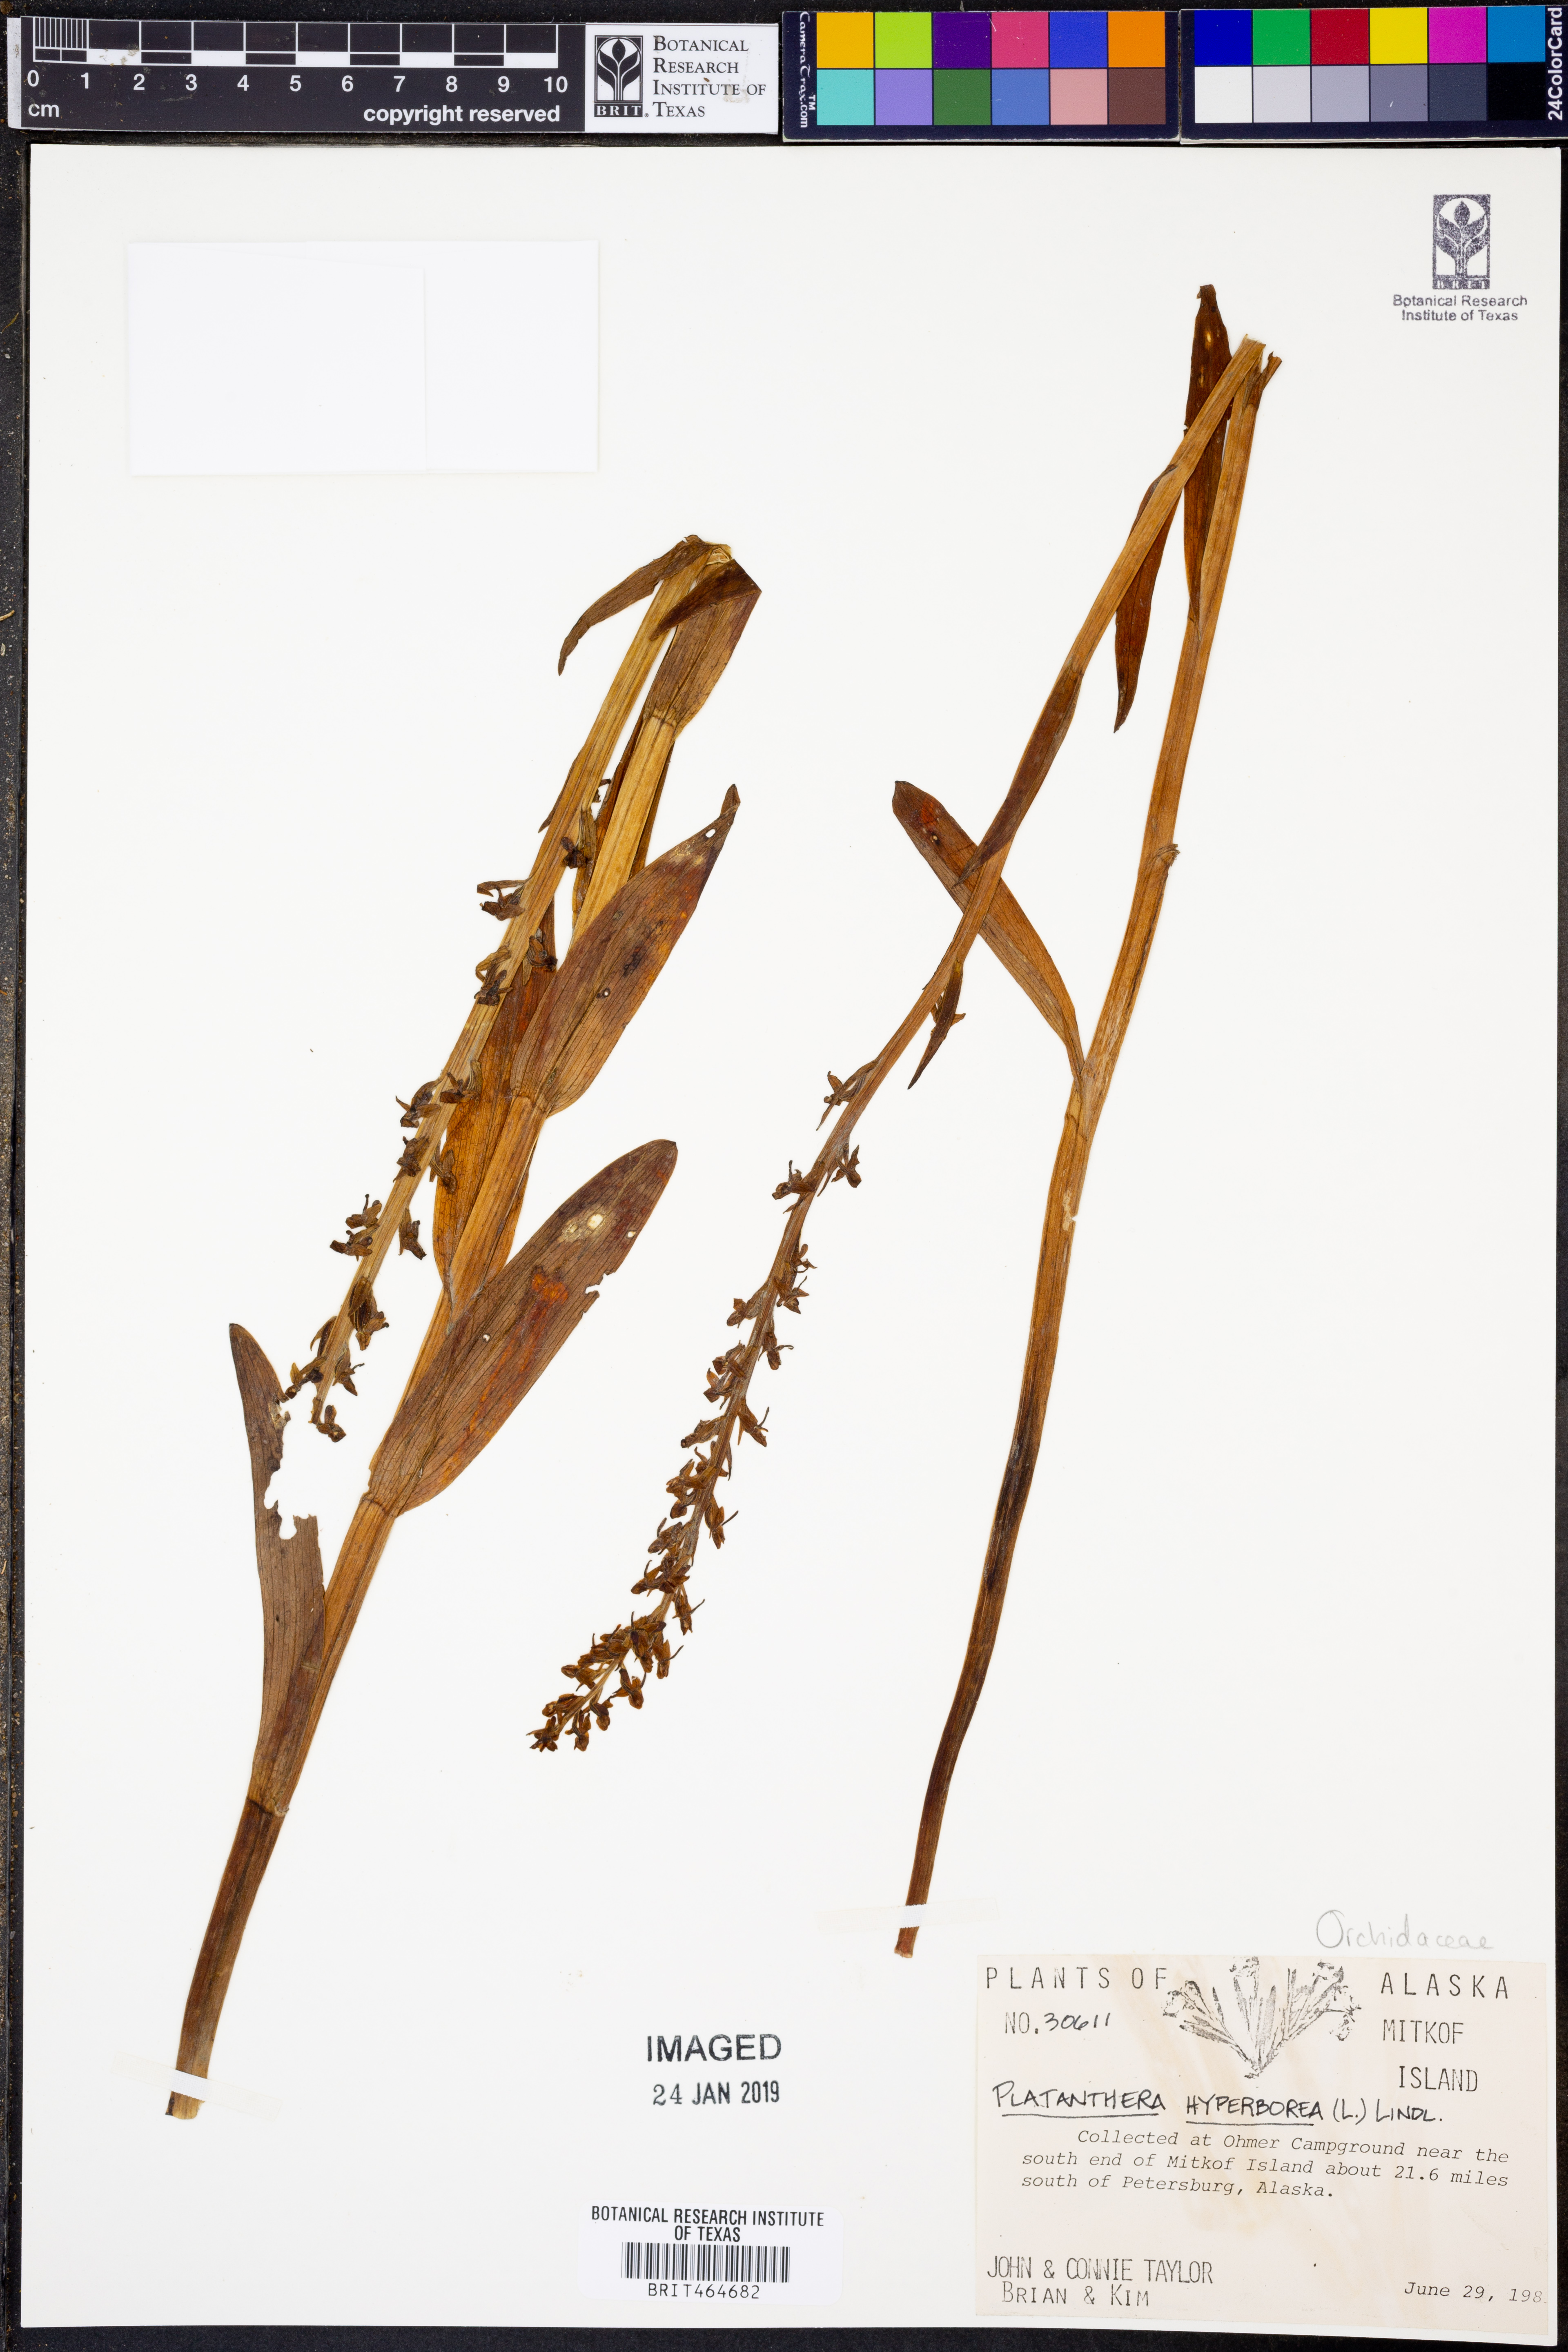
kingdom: Plantae
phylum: Tracheophyta
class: Liliopsida
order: Asparagales
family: Orchidaceae
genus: Platanthera
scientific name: Platanthera hyperborea
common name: Northern green orchid
